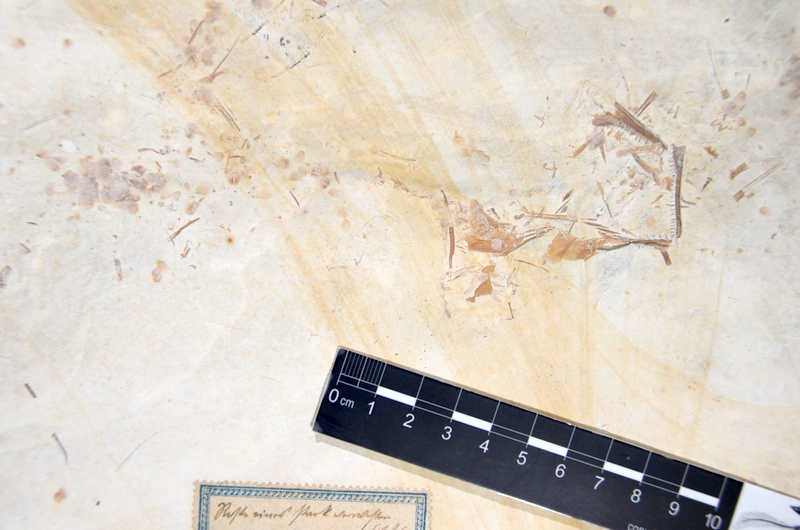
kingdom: Animalia
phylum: Chordata
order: Amiiformes
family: Caturidae
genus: Caturus
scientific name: Caturus
